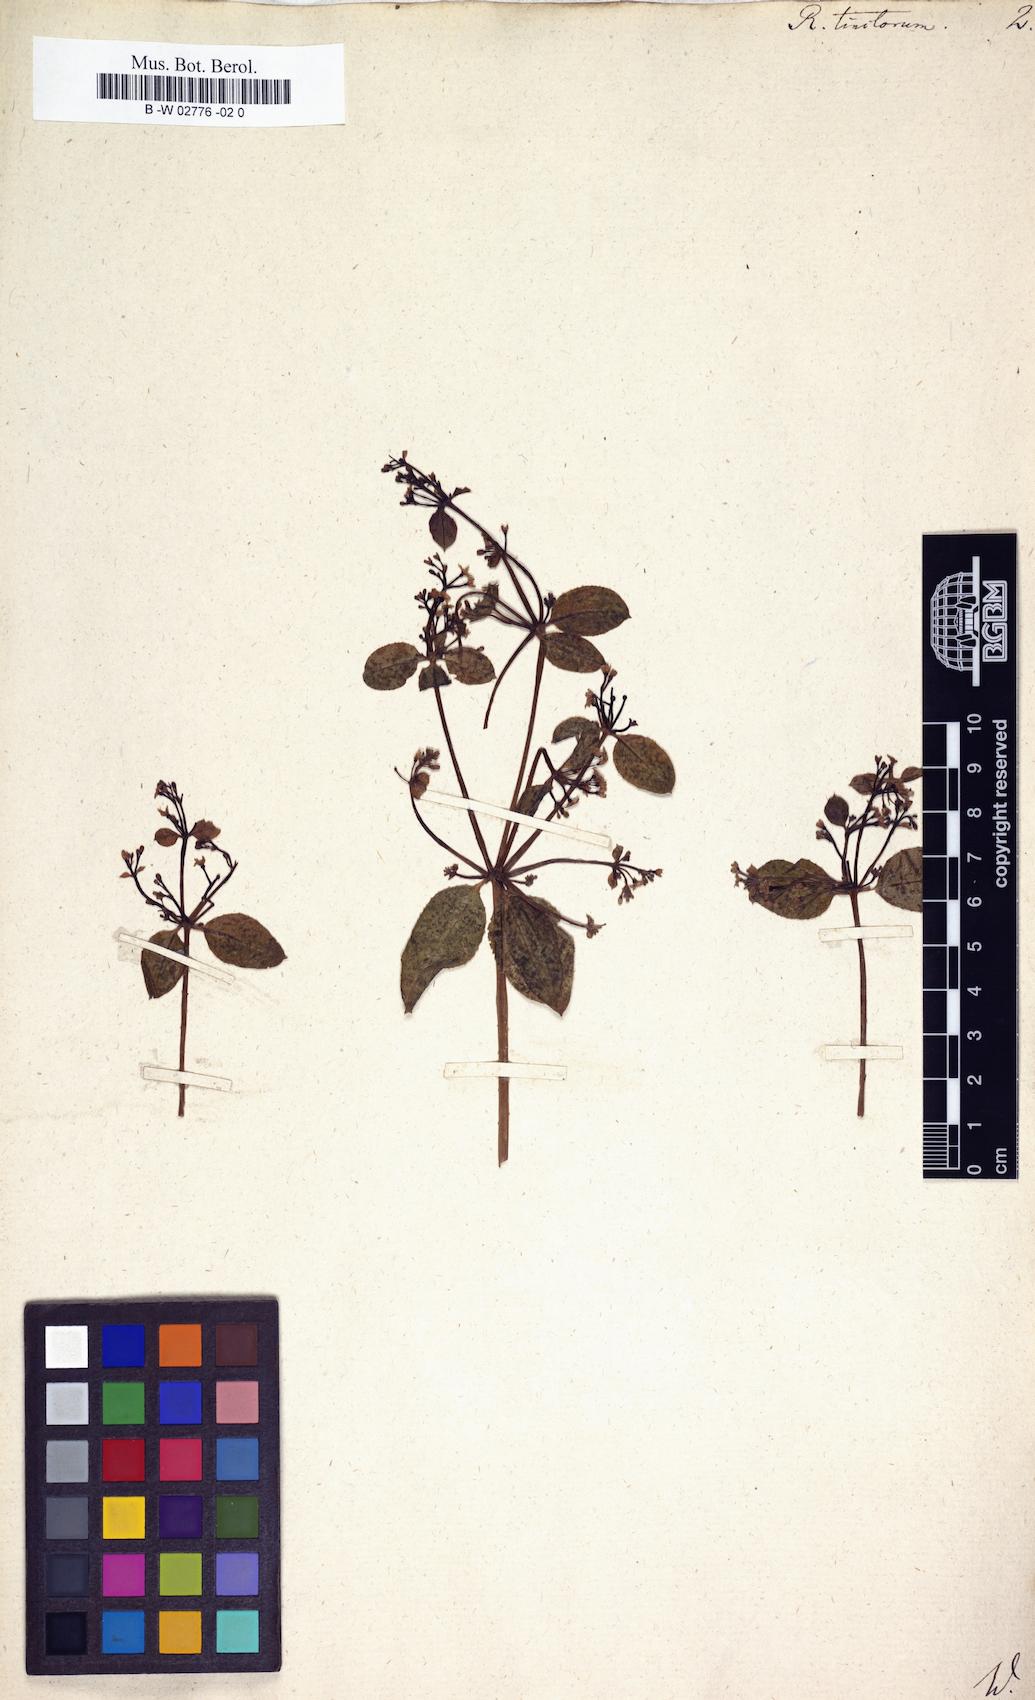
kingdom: Plantae
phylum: Tracheophyta
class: Magnoliopsida
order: Gentianales
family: Rubiaceae
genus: Rubia
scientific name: Rubia tinctorum
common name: Dyer's madder
